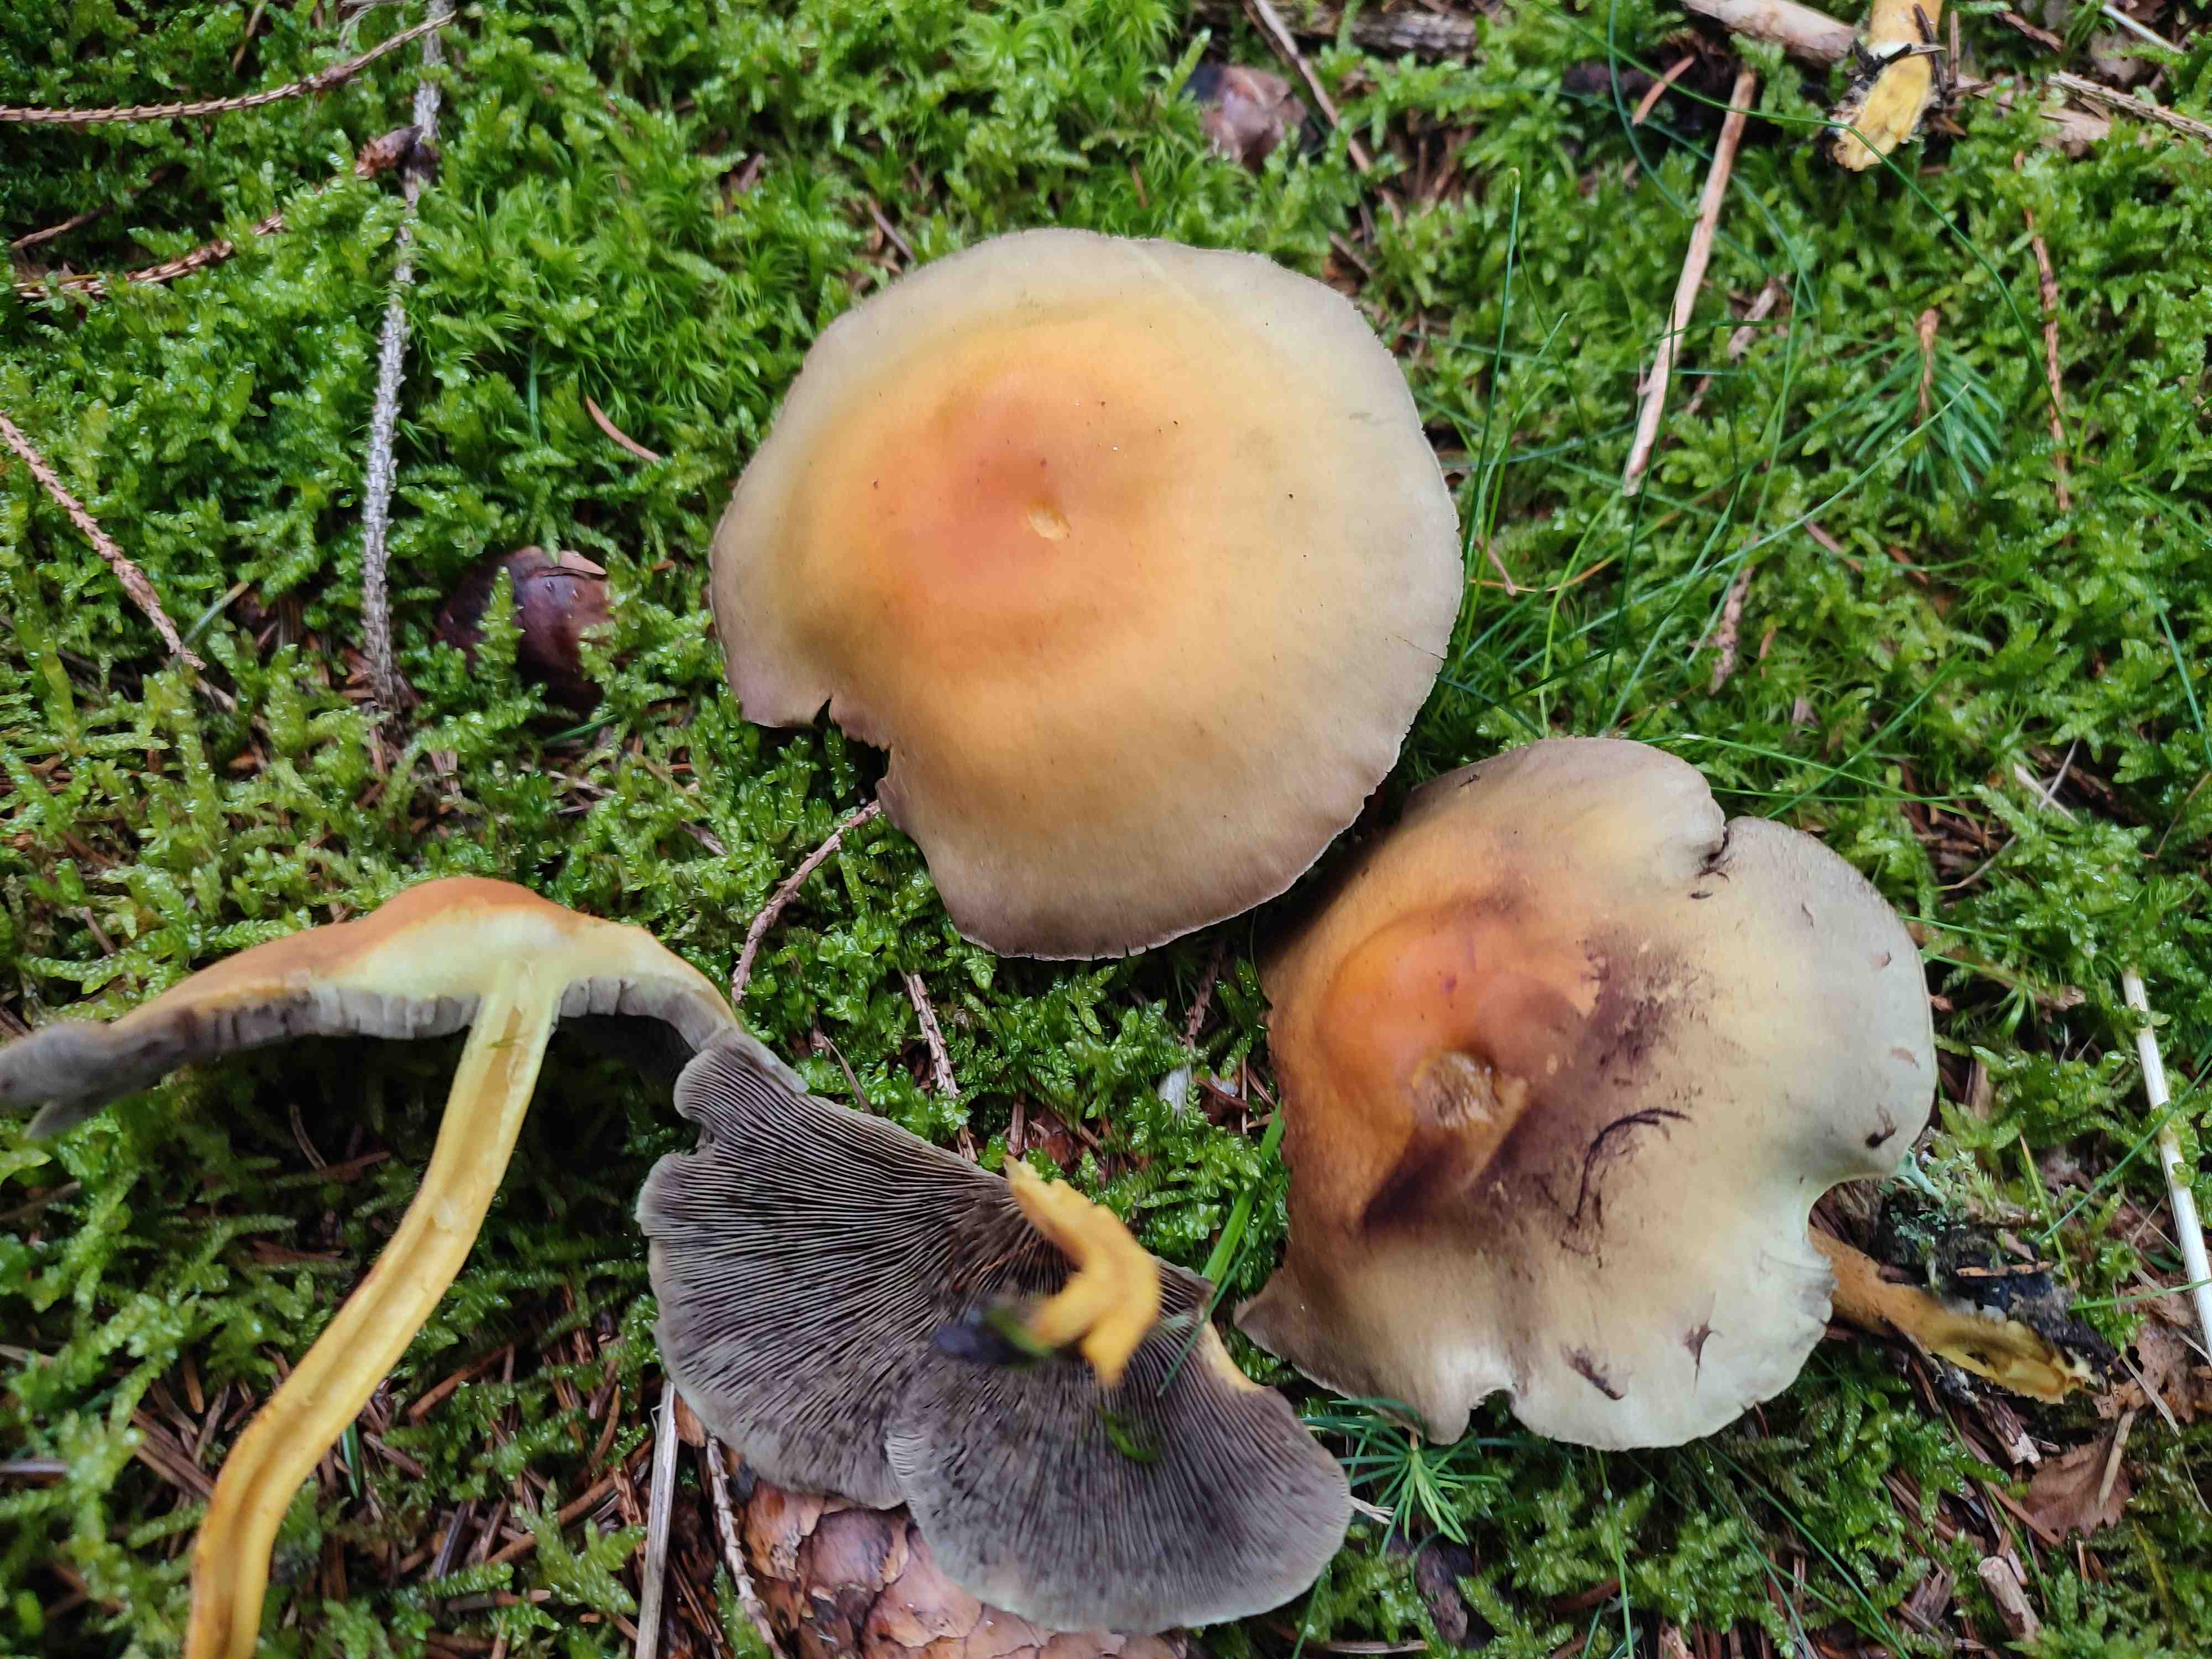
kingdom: Fungi
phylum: Basidiomycota
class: Agaricomycetes
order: Agaricales
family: Strophariaceae
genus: Hypholoma
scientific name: Hypholoma fasciculare
